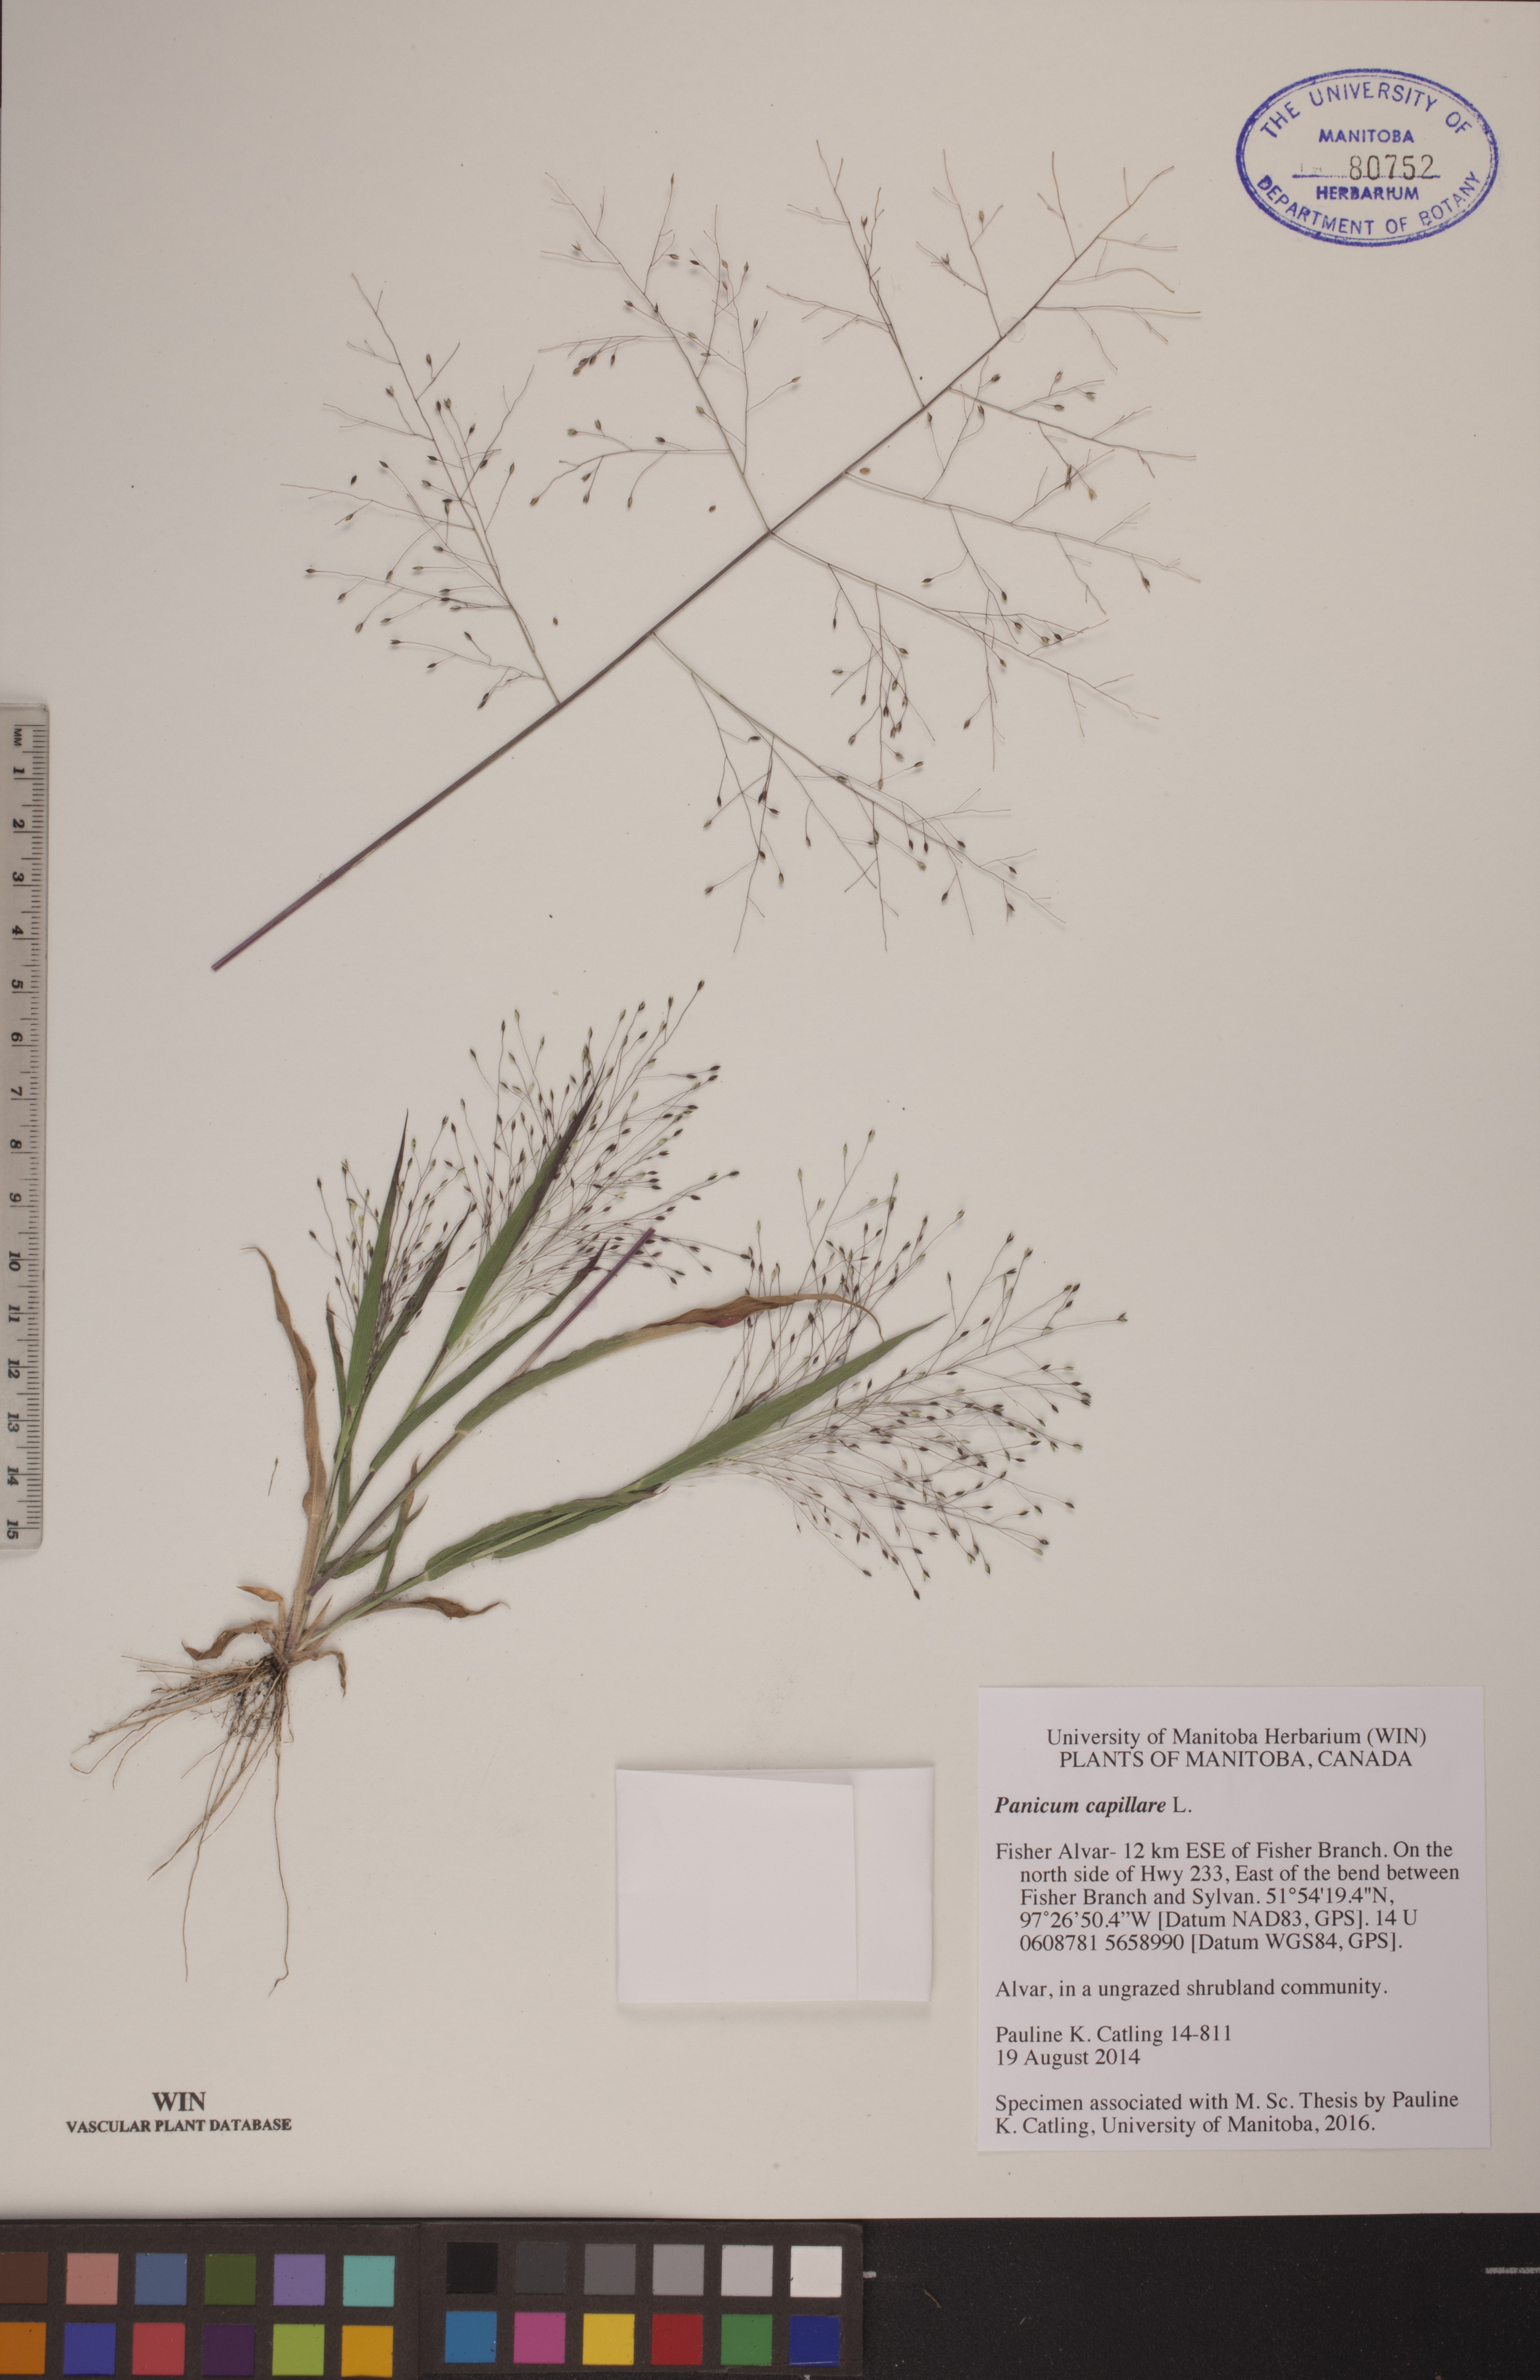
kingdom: Plantae
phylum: Tracheophyta
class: Liliopsida
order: Poales
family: Poaceae
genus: Panicum
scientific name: Panicum capillare
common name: Witch-grass
